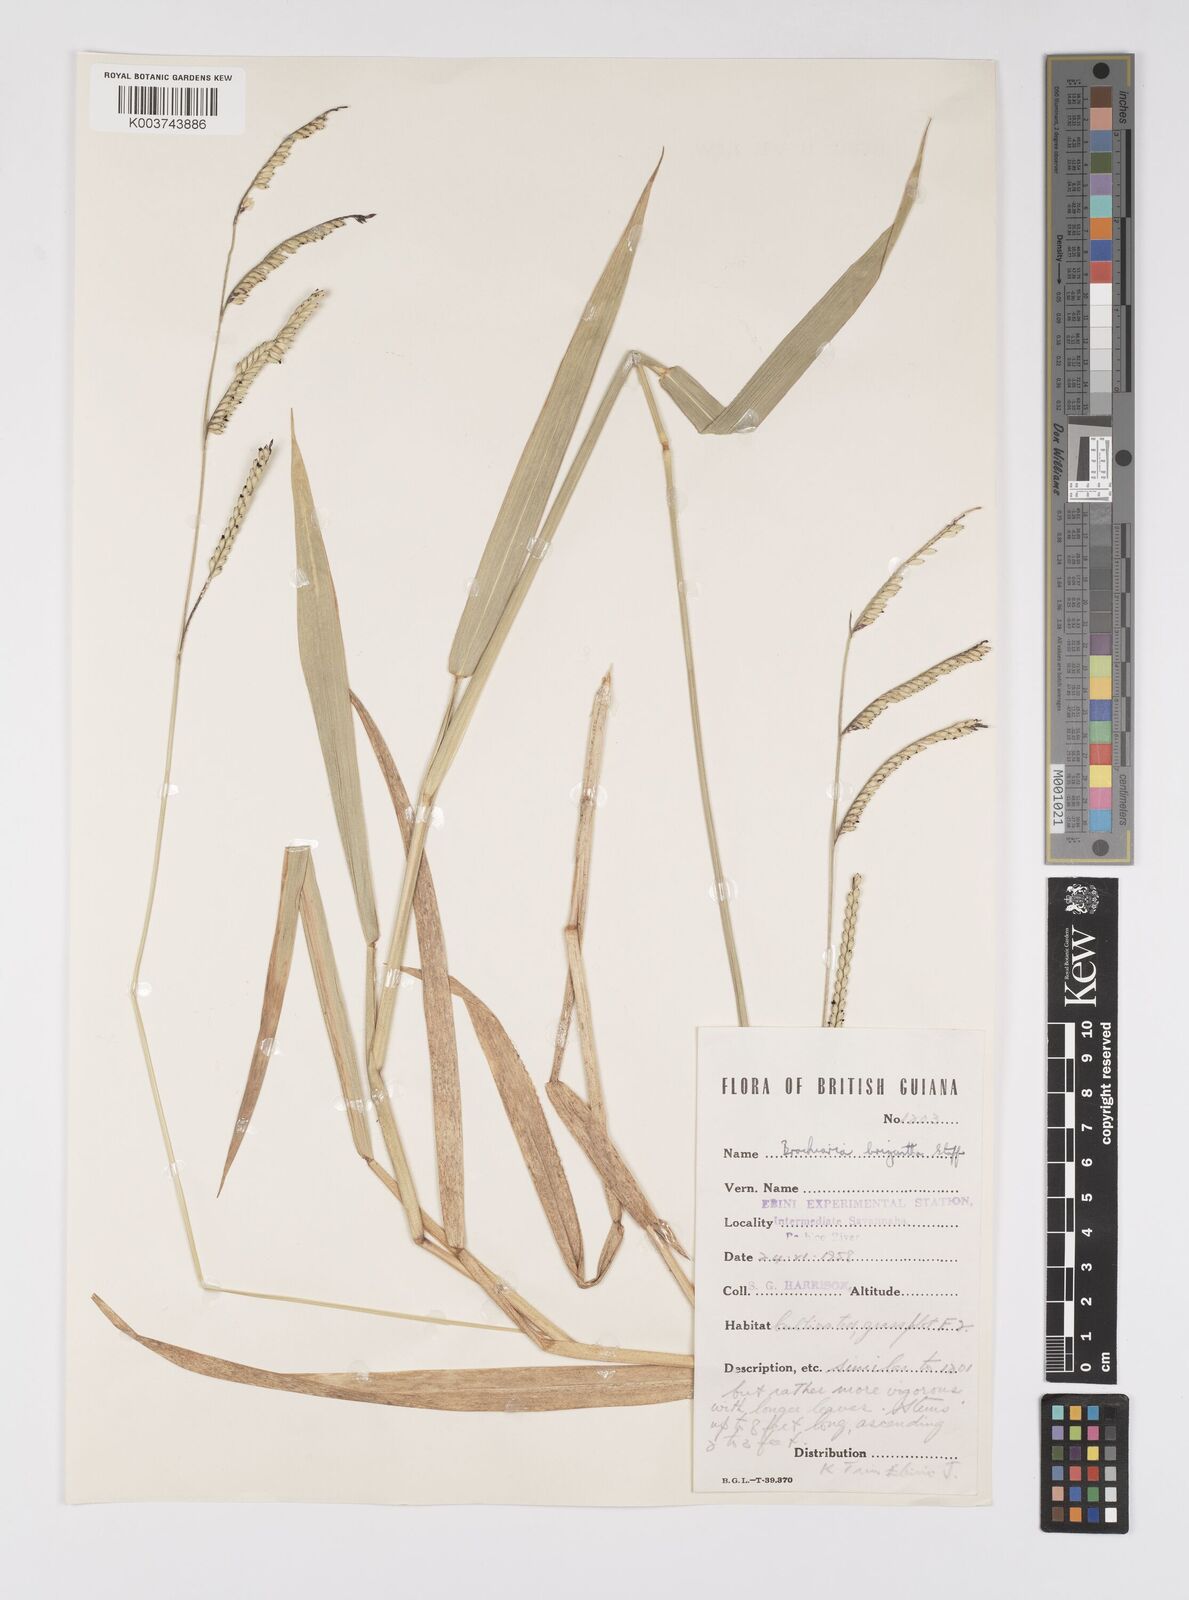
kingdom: Plantae
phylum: Tracheophyta
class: Liliopsida
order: Poales
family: Poaceae
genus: Urochloa
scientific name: Urochloa brizantha
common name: Palisade signalgrass
